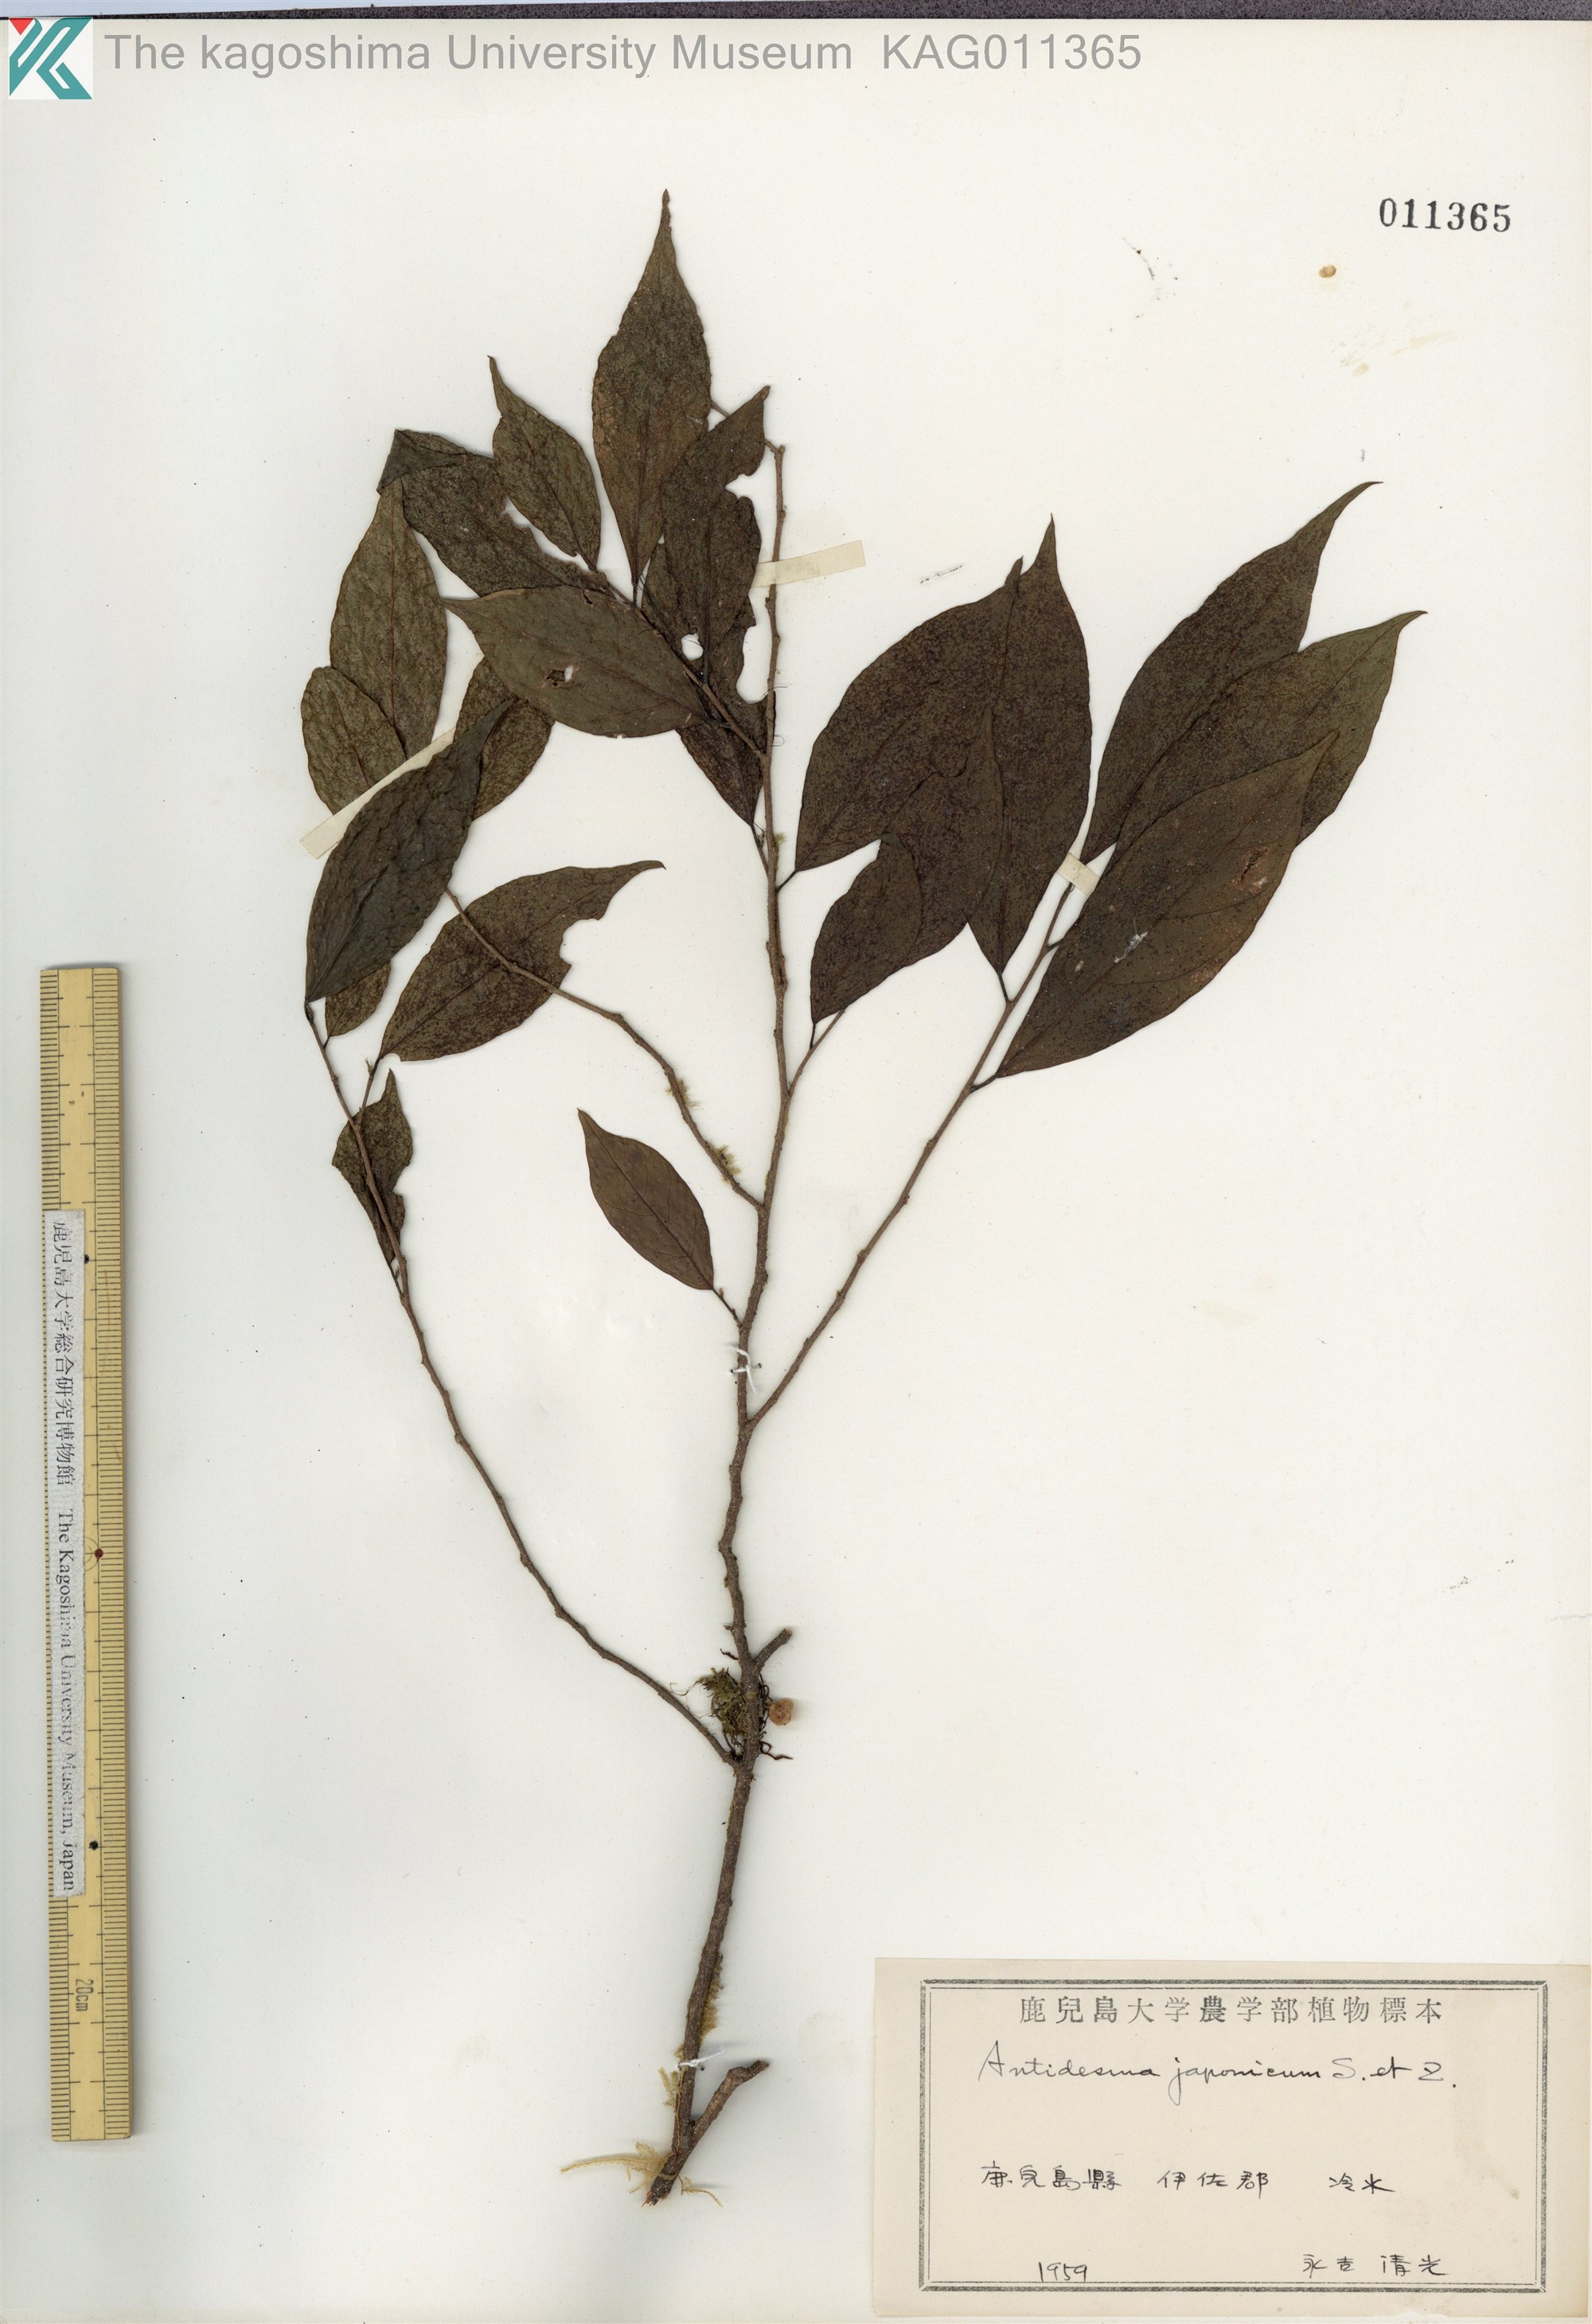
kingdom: Plantae
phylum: Tracheophyta
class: Magnoliopsida
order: Malpighiales
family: Phyllanthaceae
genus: Antidesma
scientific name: Antidesma japonicum
